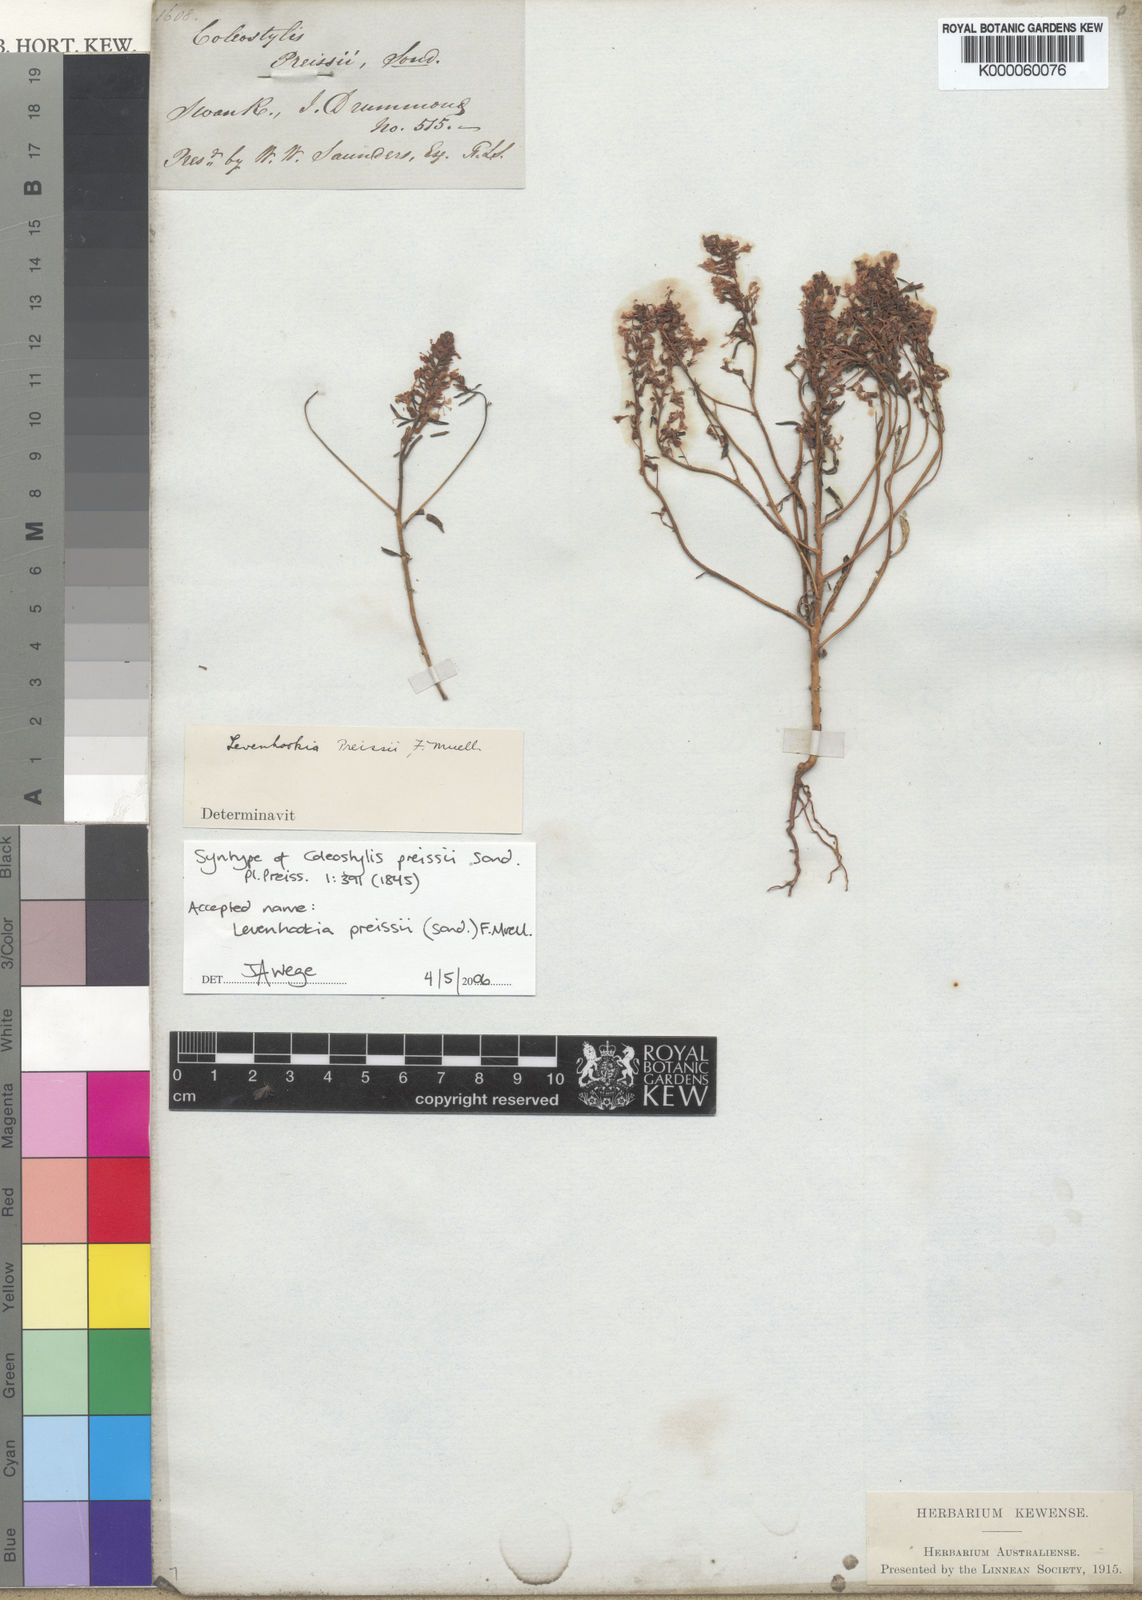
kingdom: Plantae
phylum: Tracheophyta
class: Magnoliopsida
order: Asterales
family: Stylidiaceae
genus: Levenhookia
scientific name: Levenhookia preissii
